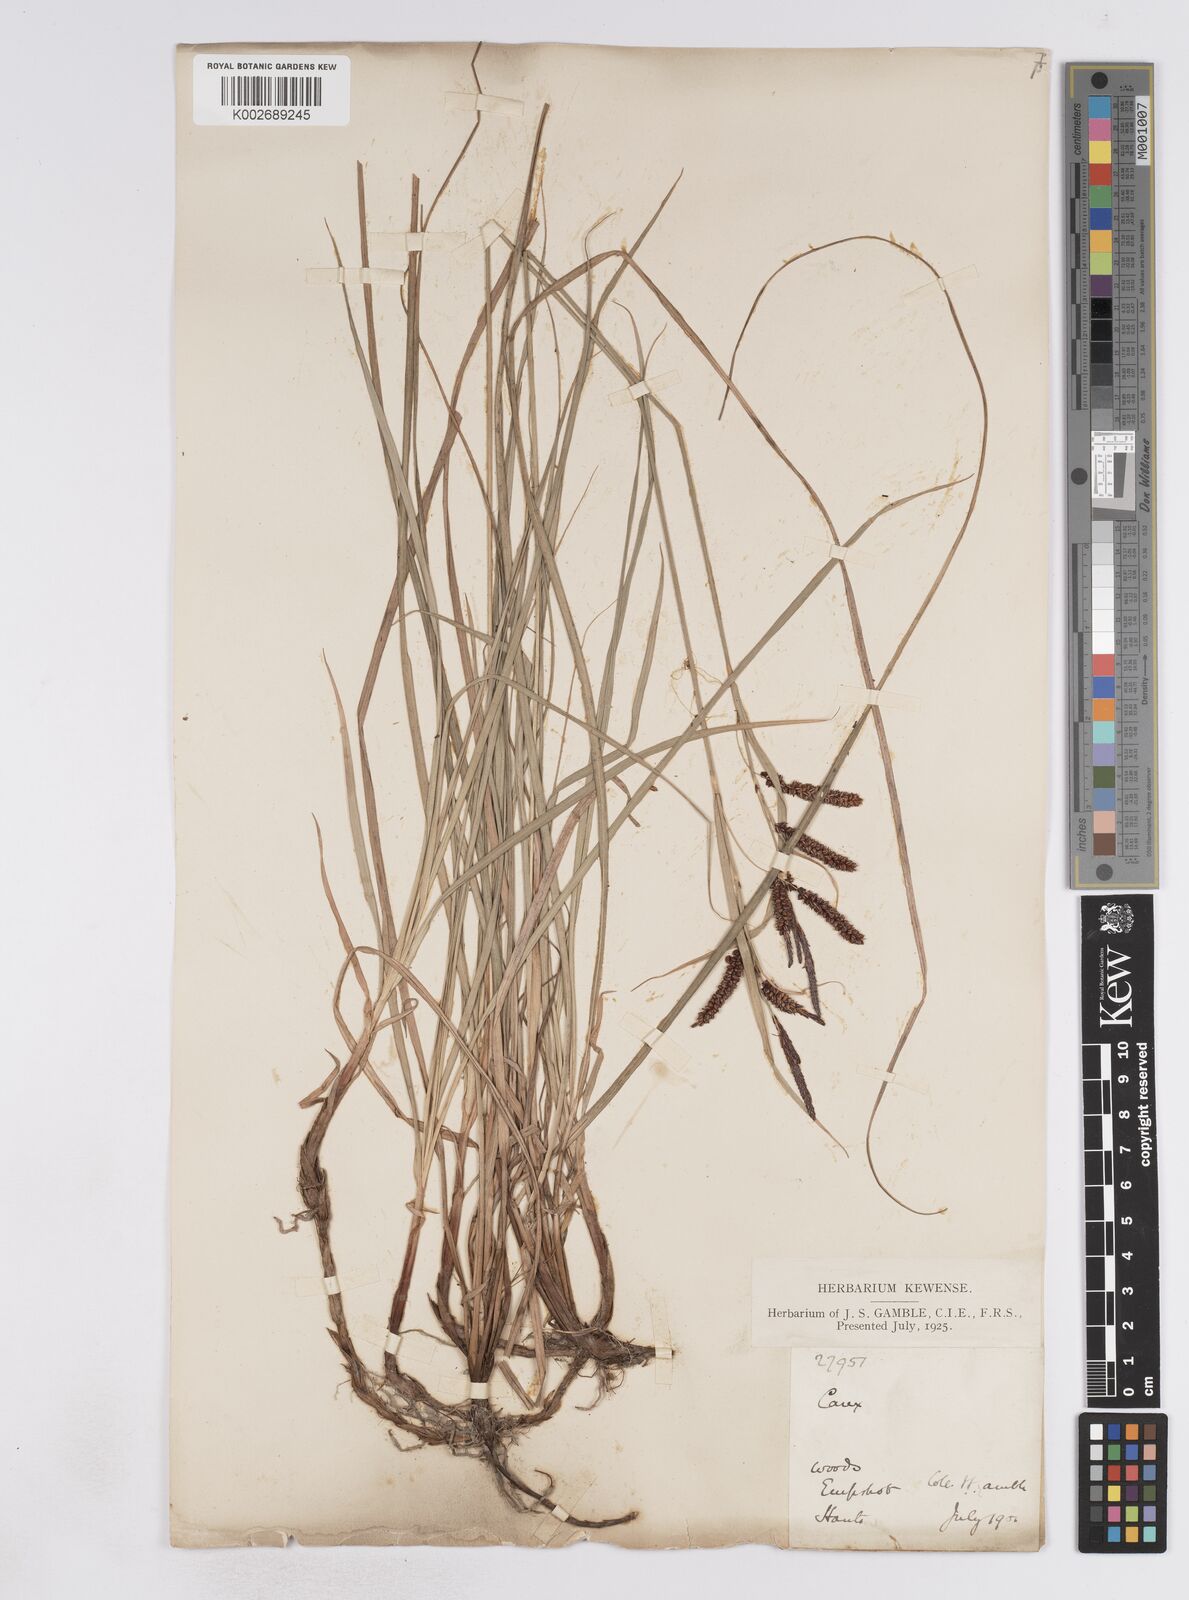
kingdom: Plantae
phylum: Tracheophyta
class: Liliopsida
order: Poales
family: Cyperaceae
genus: Carex
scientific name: Carex flacca
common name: Glaucous sedge
